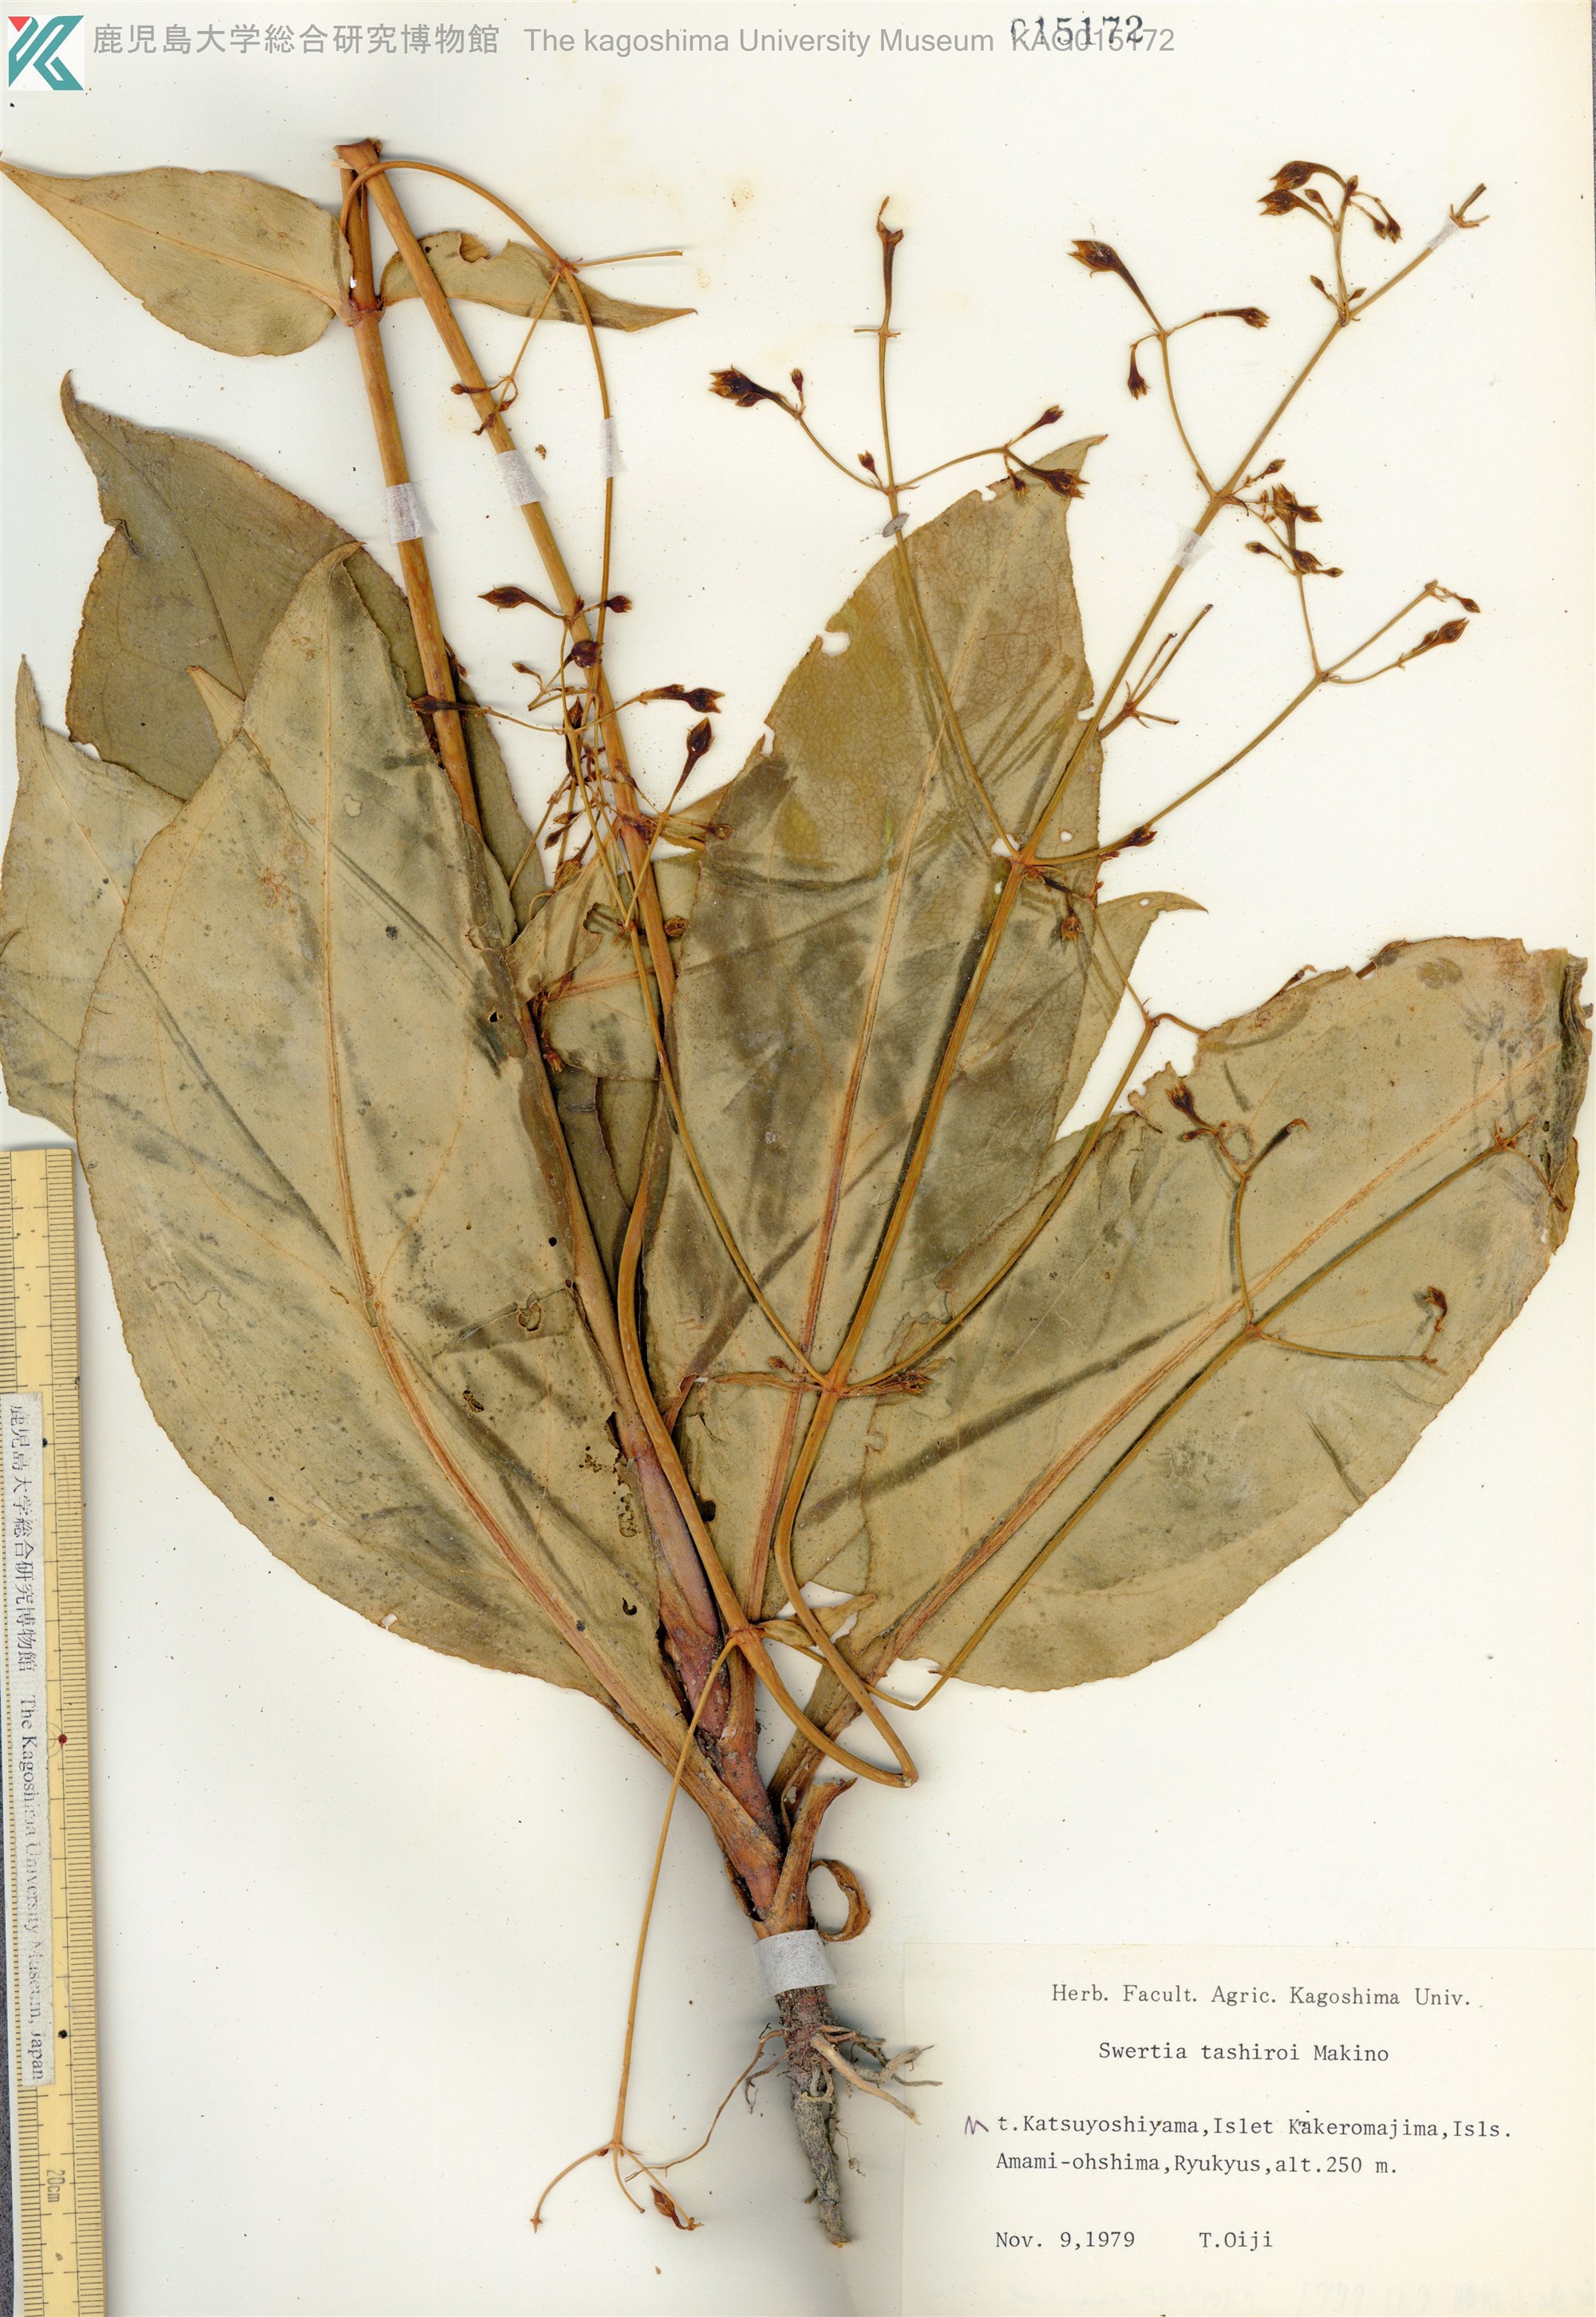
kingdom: Plantae
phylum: Tracheophyta
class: Magnoliopsida
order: Gentianales
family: Gentianaceae
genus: Swertia
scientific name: Swertia tashiroi
